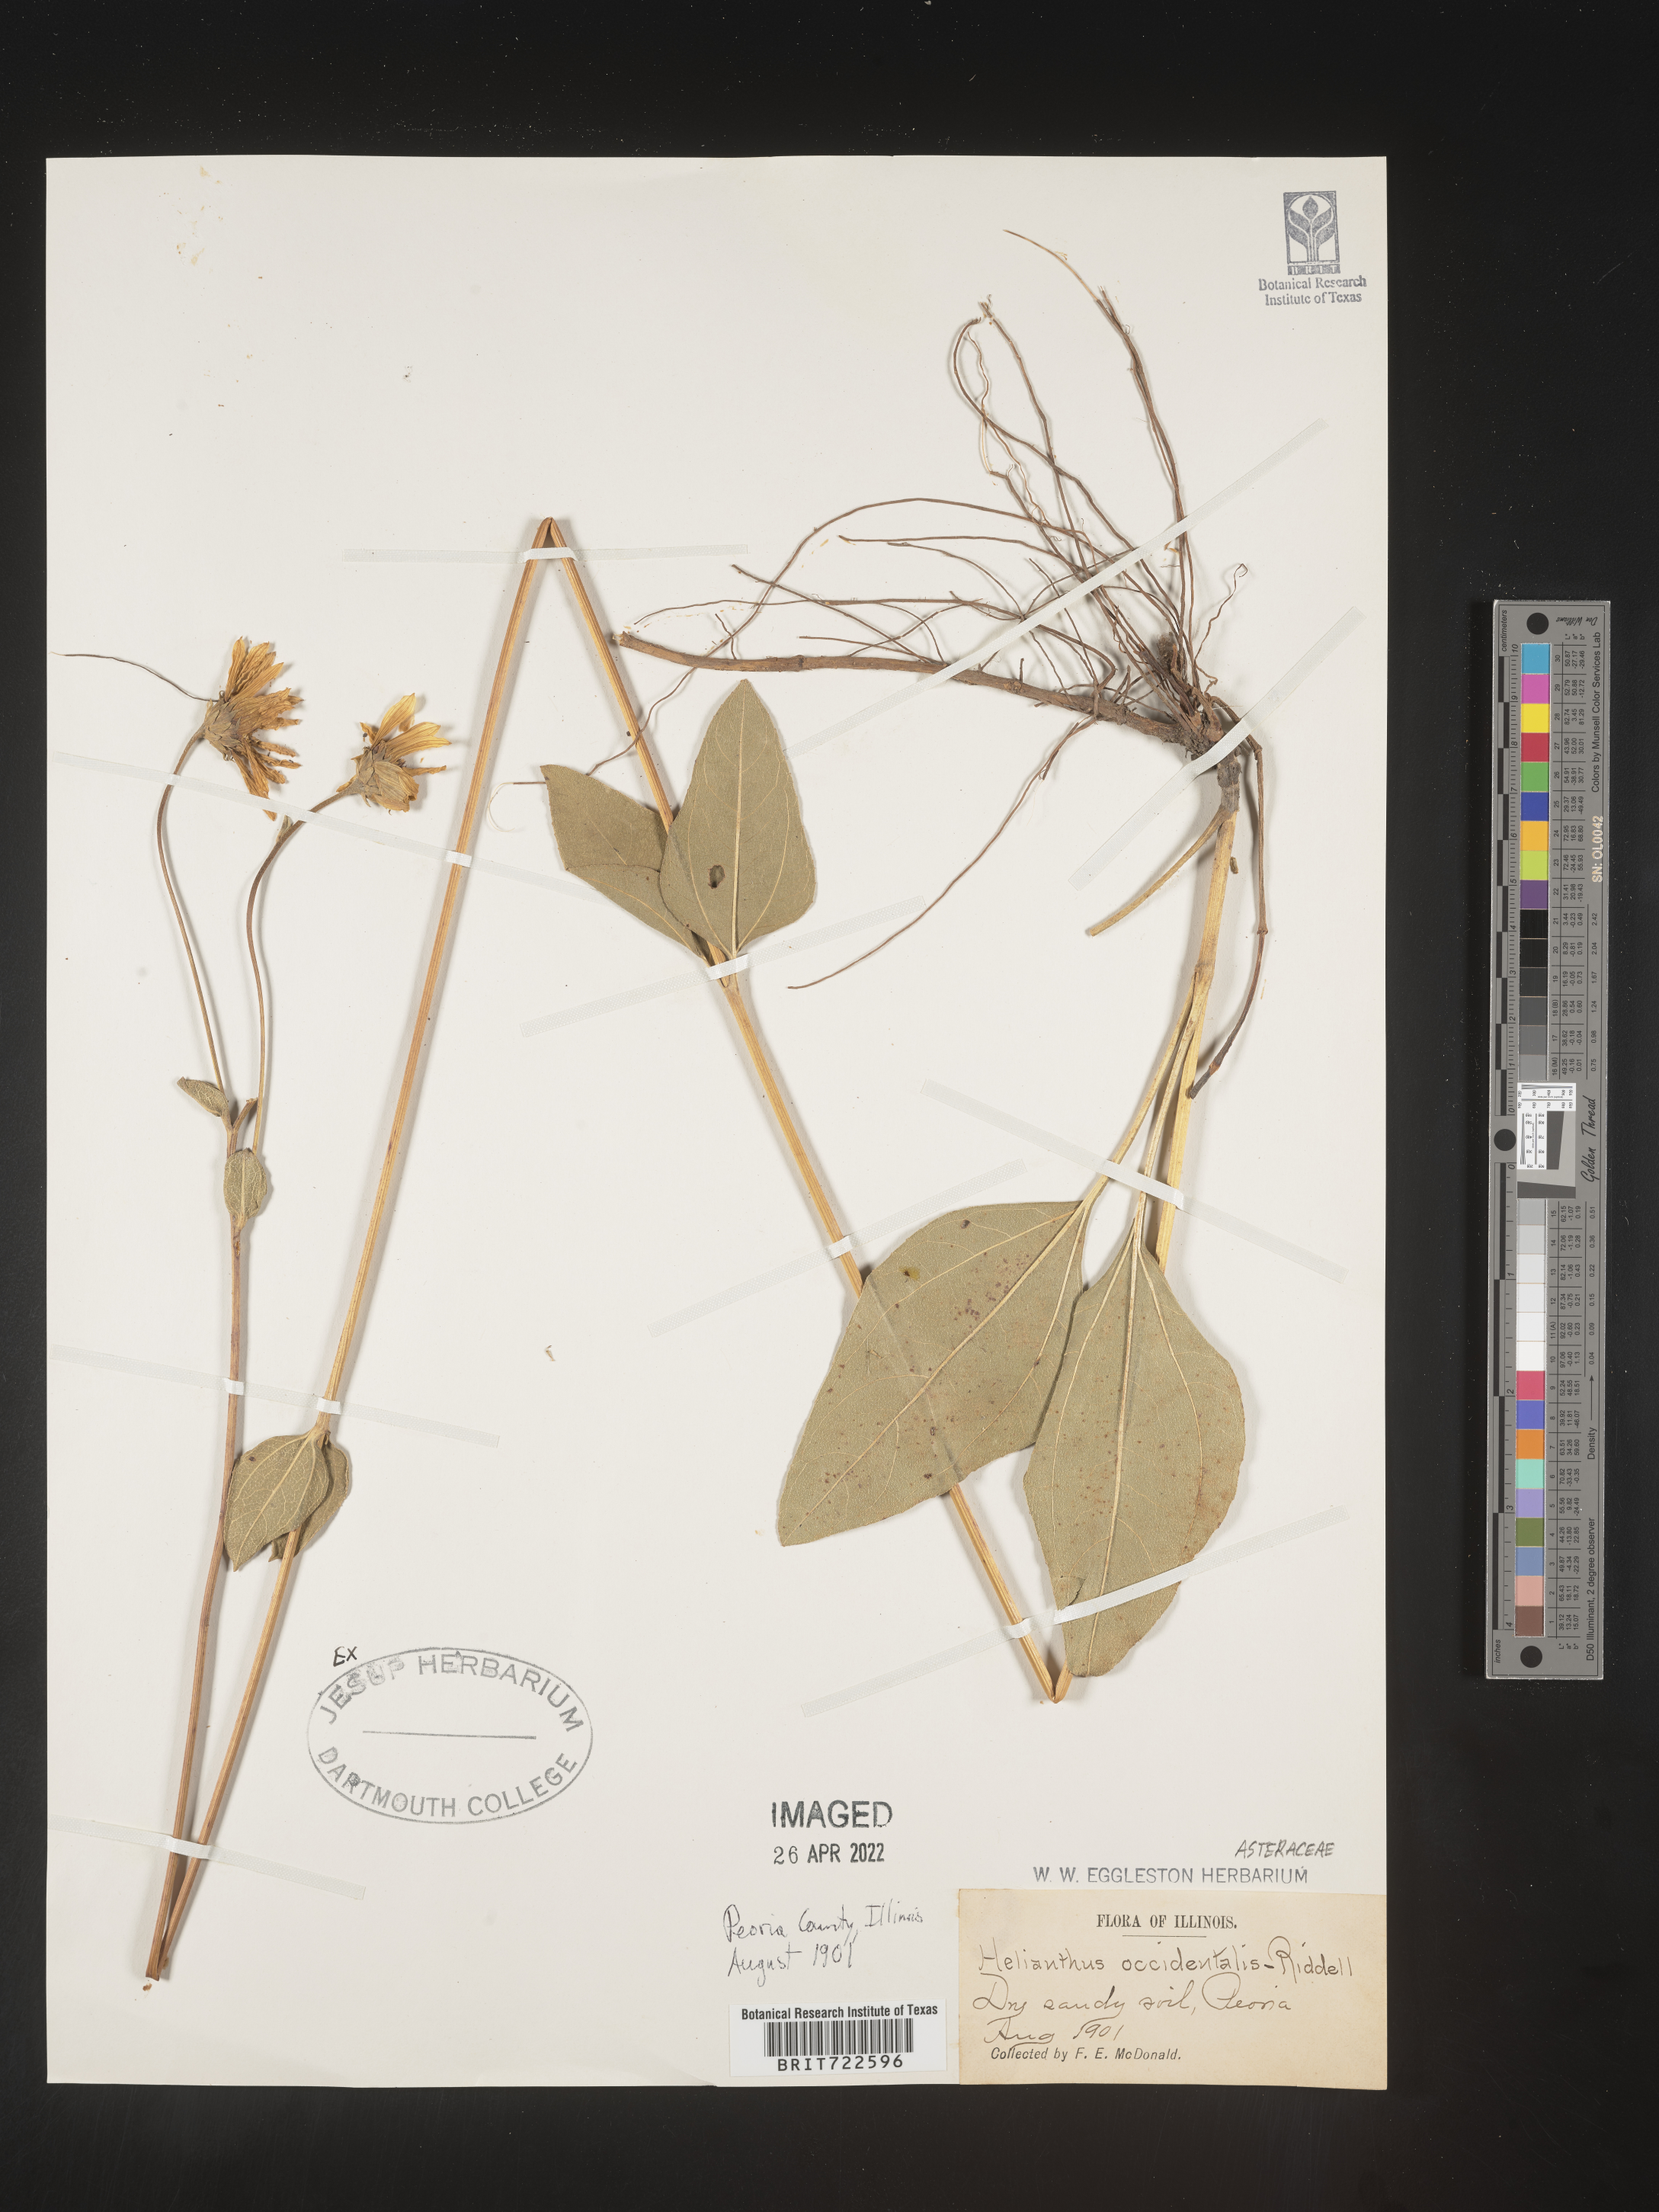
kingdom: Plantae
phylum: Tracheophyta
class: Magnoliopsida
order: Asterales
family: Asteraceae
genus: Helianthus
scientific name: Helianthus occidentalis
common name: Western sunflower
